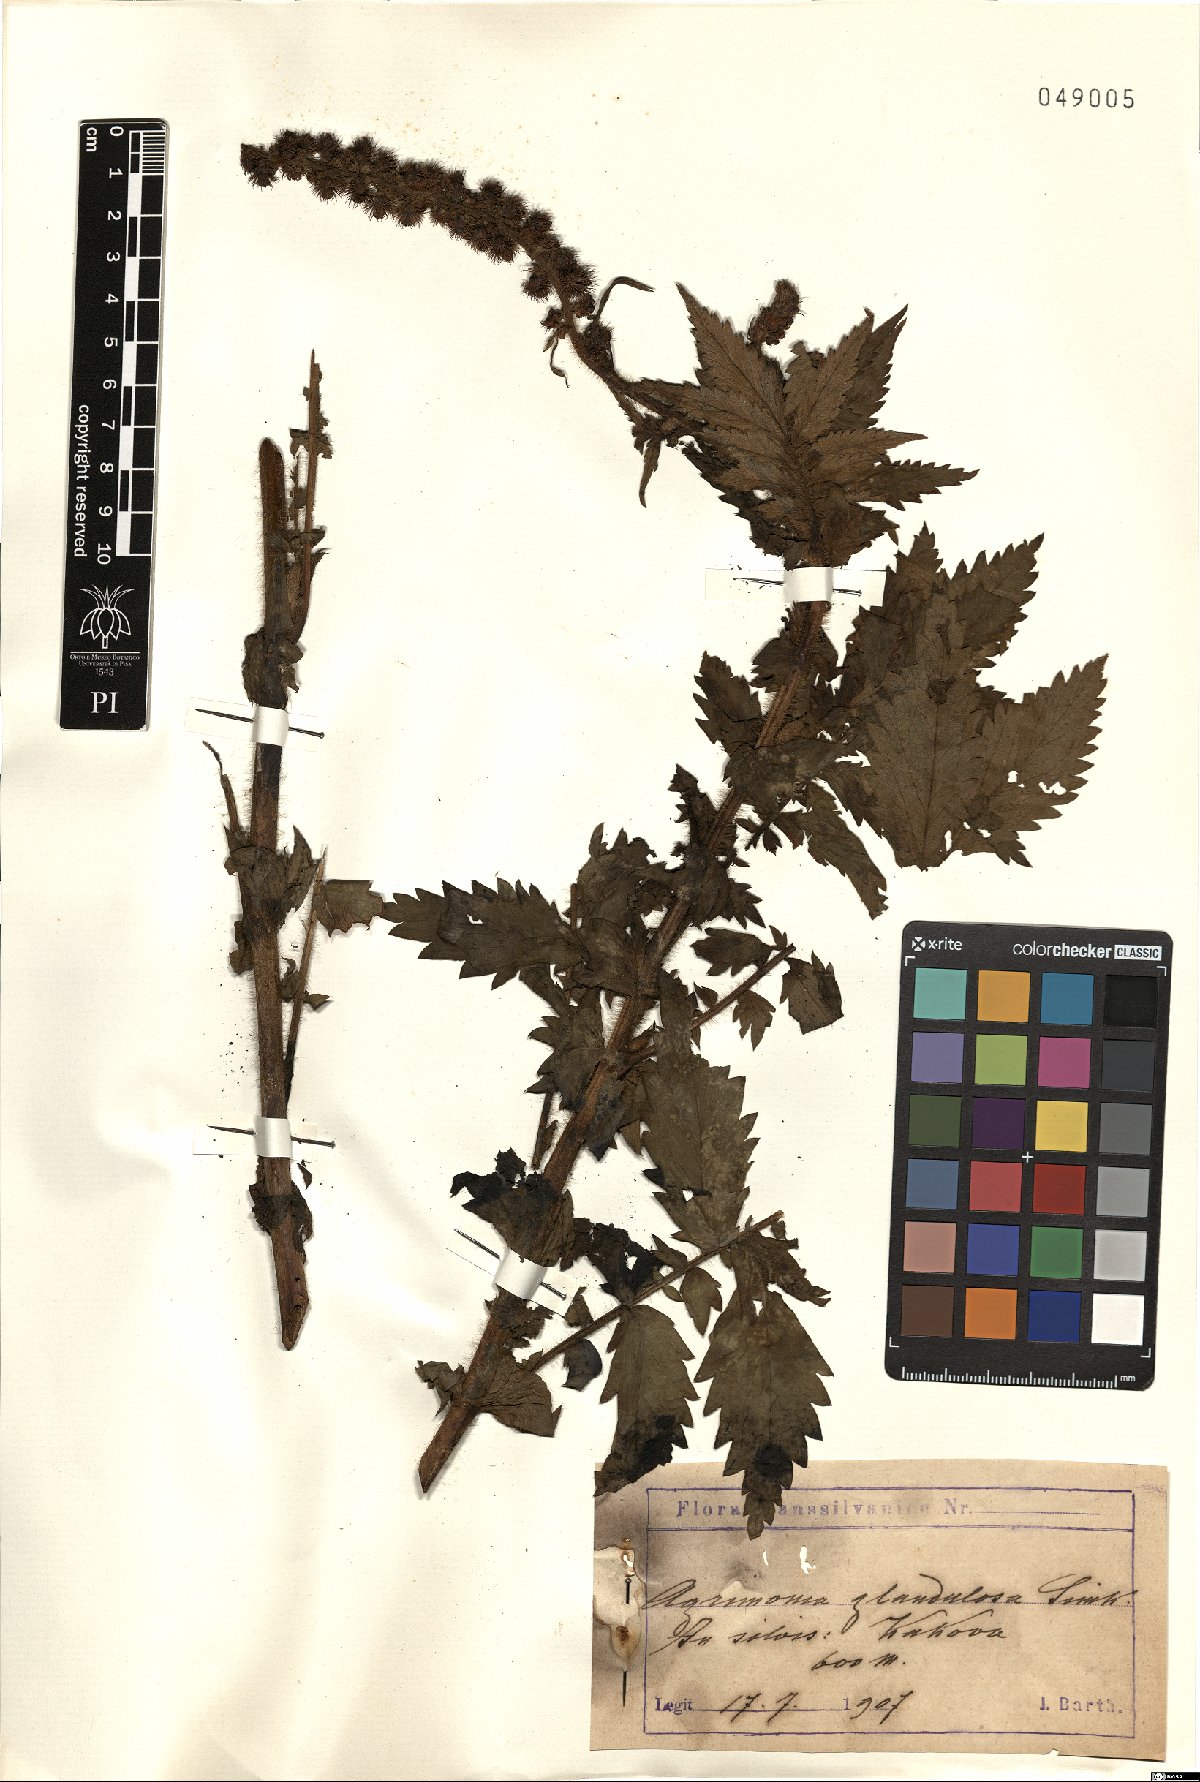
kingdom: Plantae
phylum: Tracheophyta
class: Magnoliopsida
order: Rosales
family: Rosaceae
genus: Agrimonia
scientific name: Agrimonia procera
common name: Fragrant agrimony
